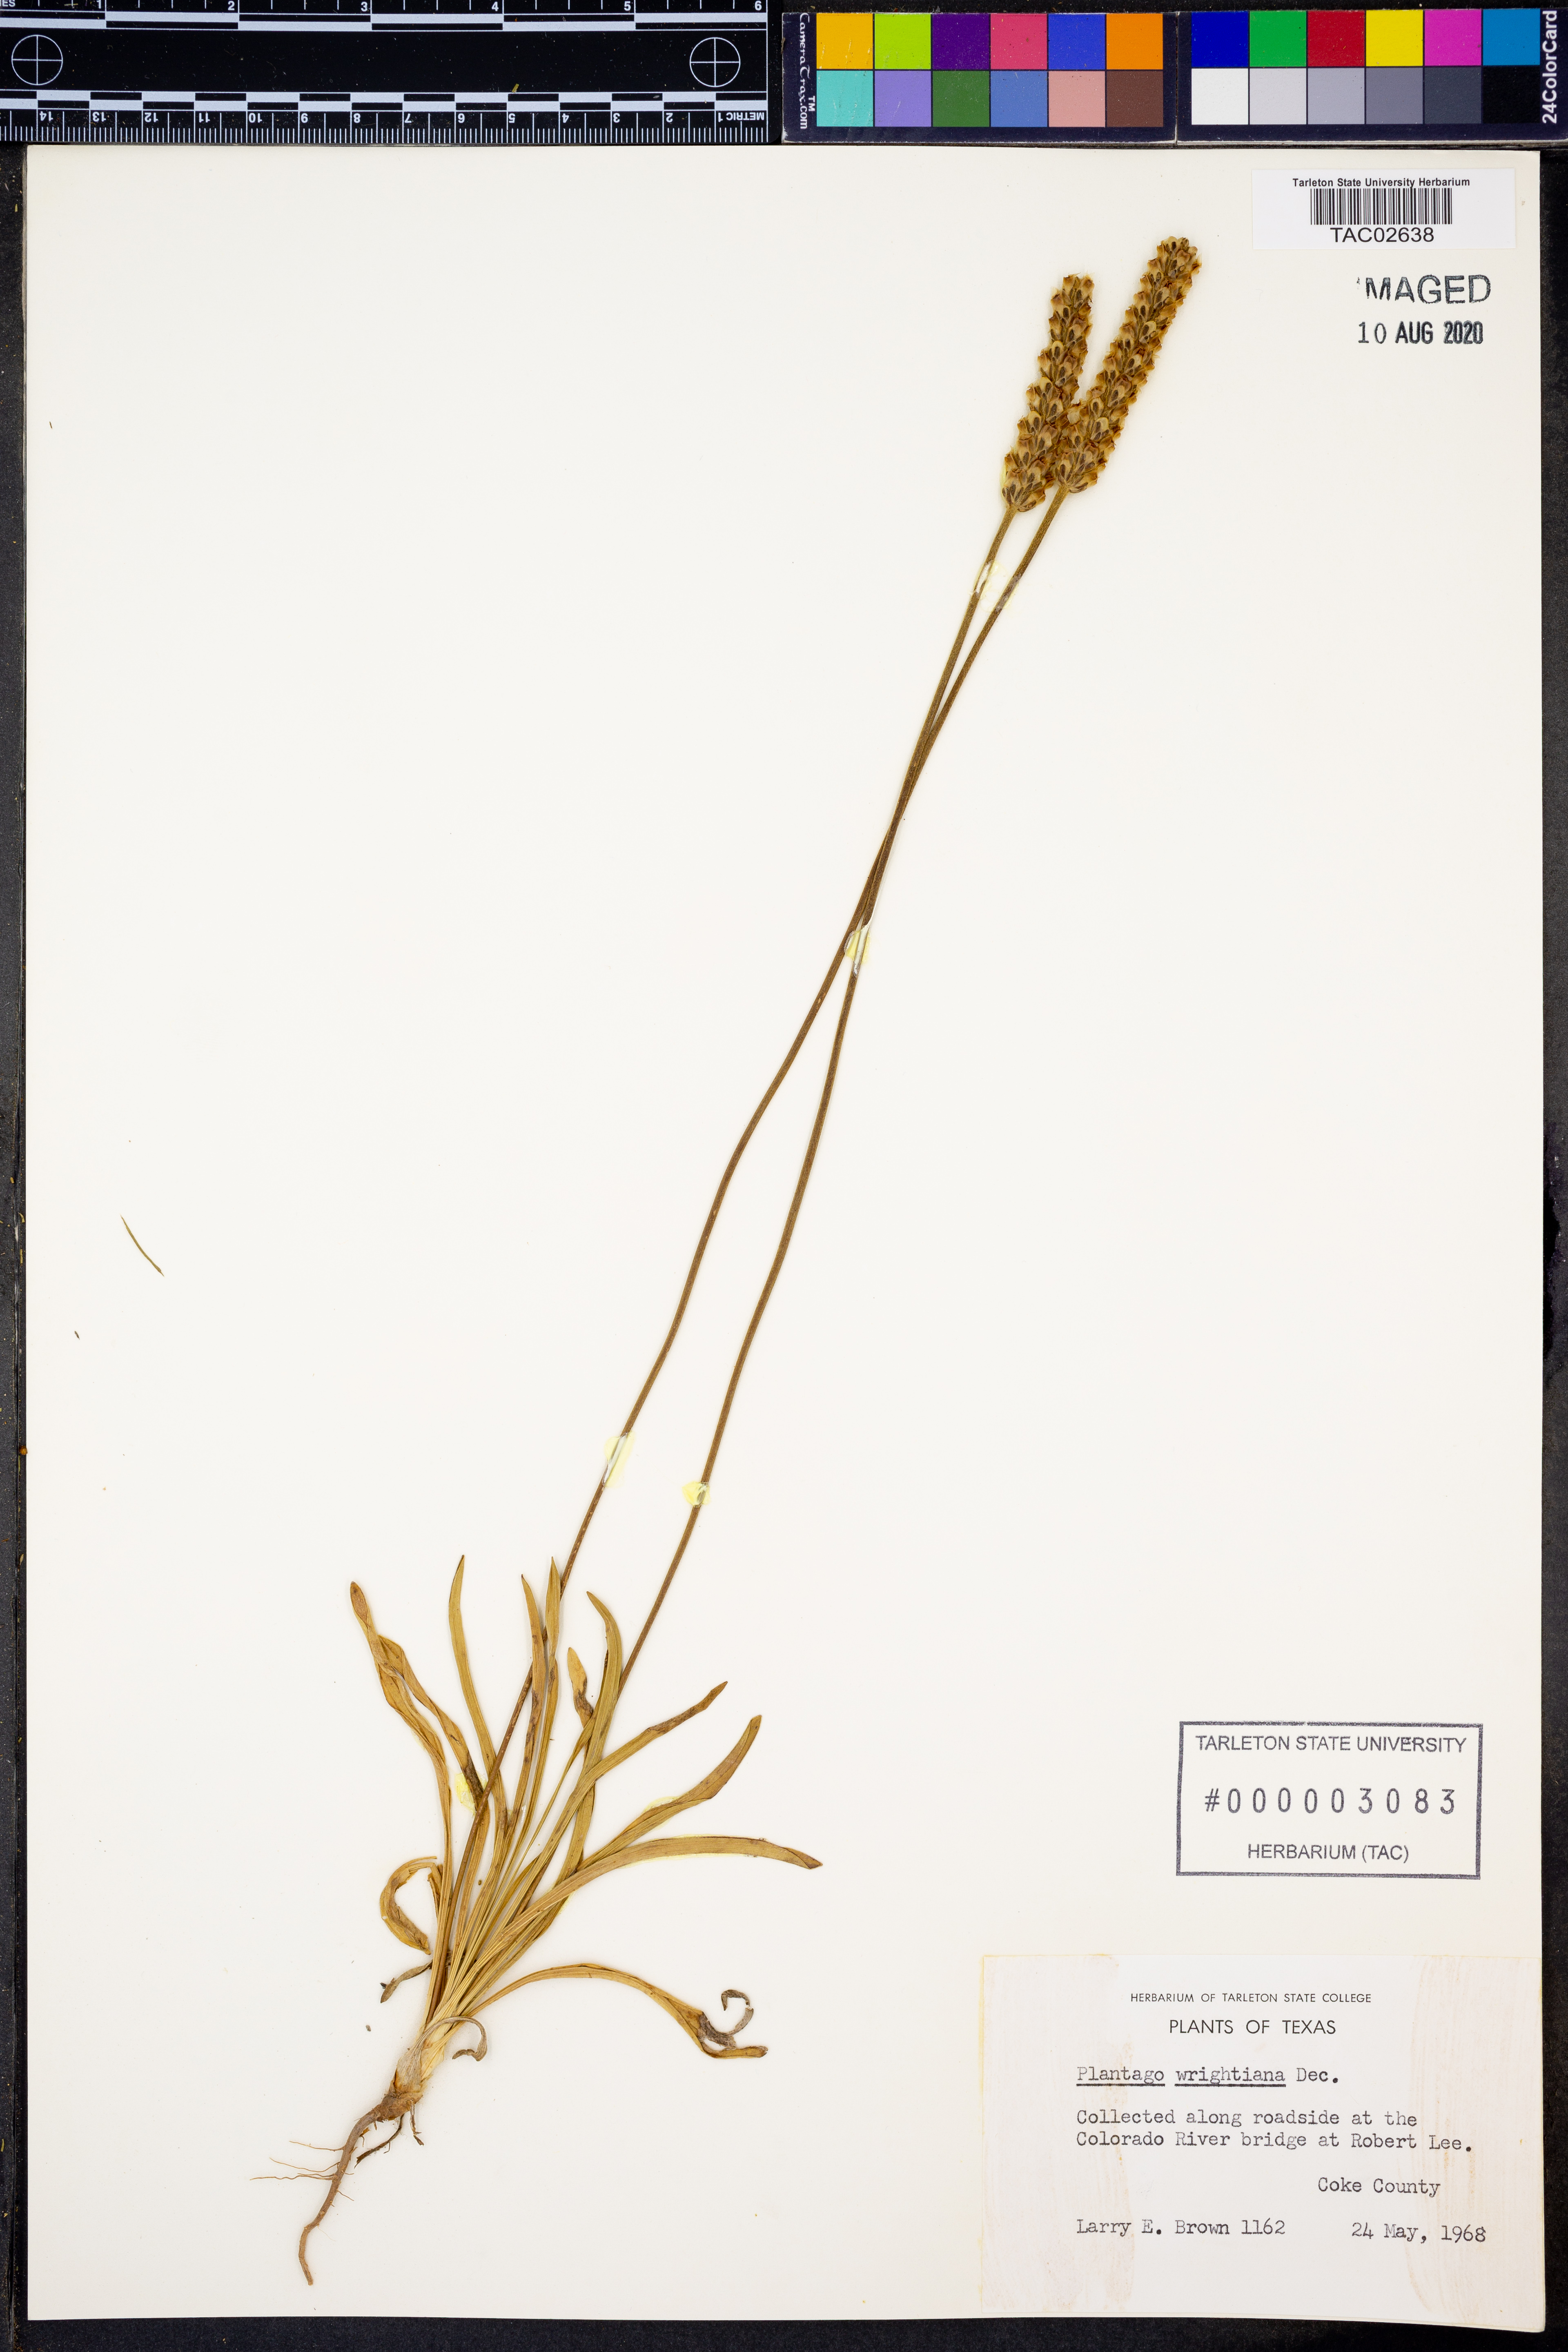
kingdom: Plantae
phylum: Tracheophyta
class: Magnoliopsida
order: Lamiales
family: Plantaginaceae
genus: Plantago
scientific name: Plantago wrightiana
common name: Wright's plantain
